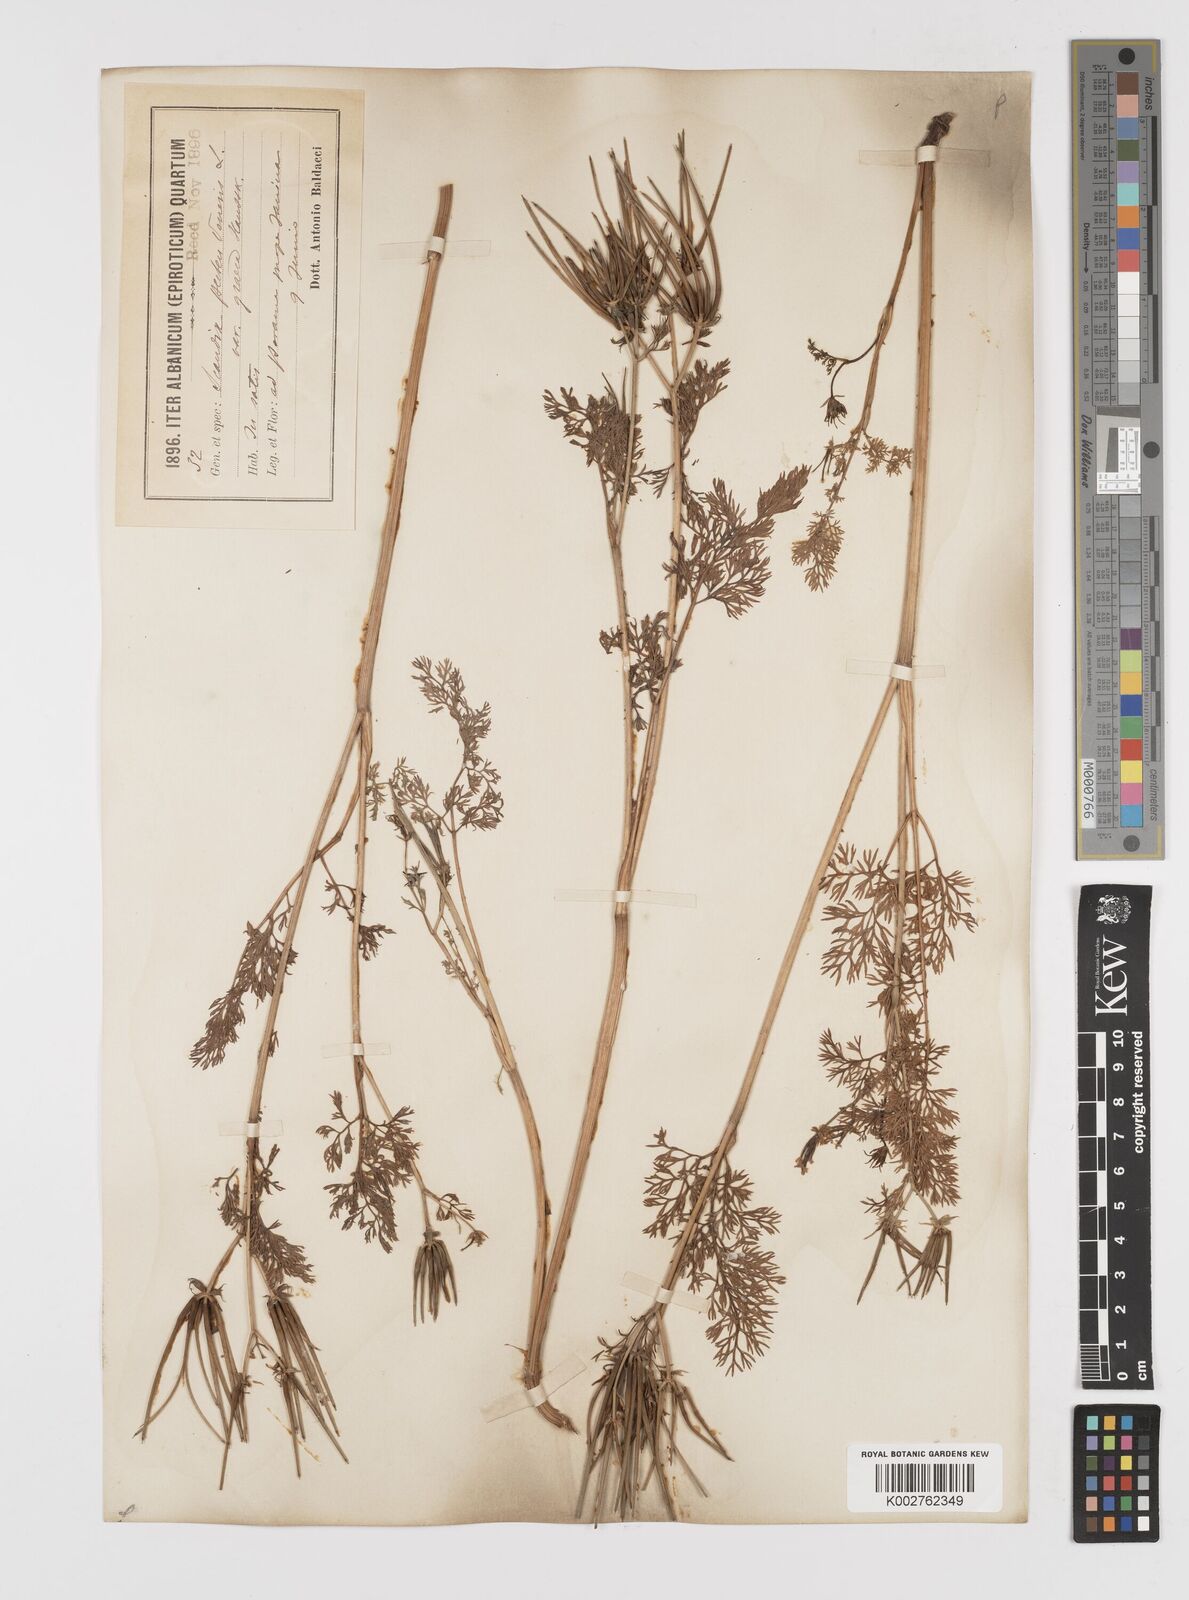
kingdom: Plantae
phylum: Tracheophyta
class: Magnoliopsida
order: Apiales
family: Apiaceae
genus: Scandix
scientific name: Scandix pecten-veneris
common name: Shepherd's-needle
